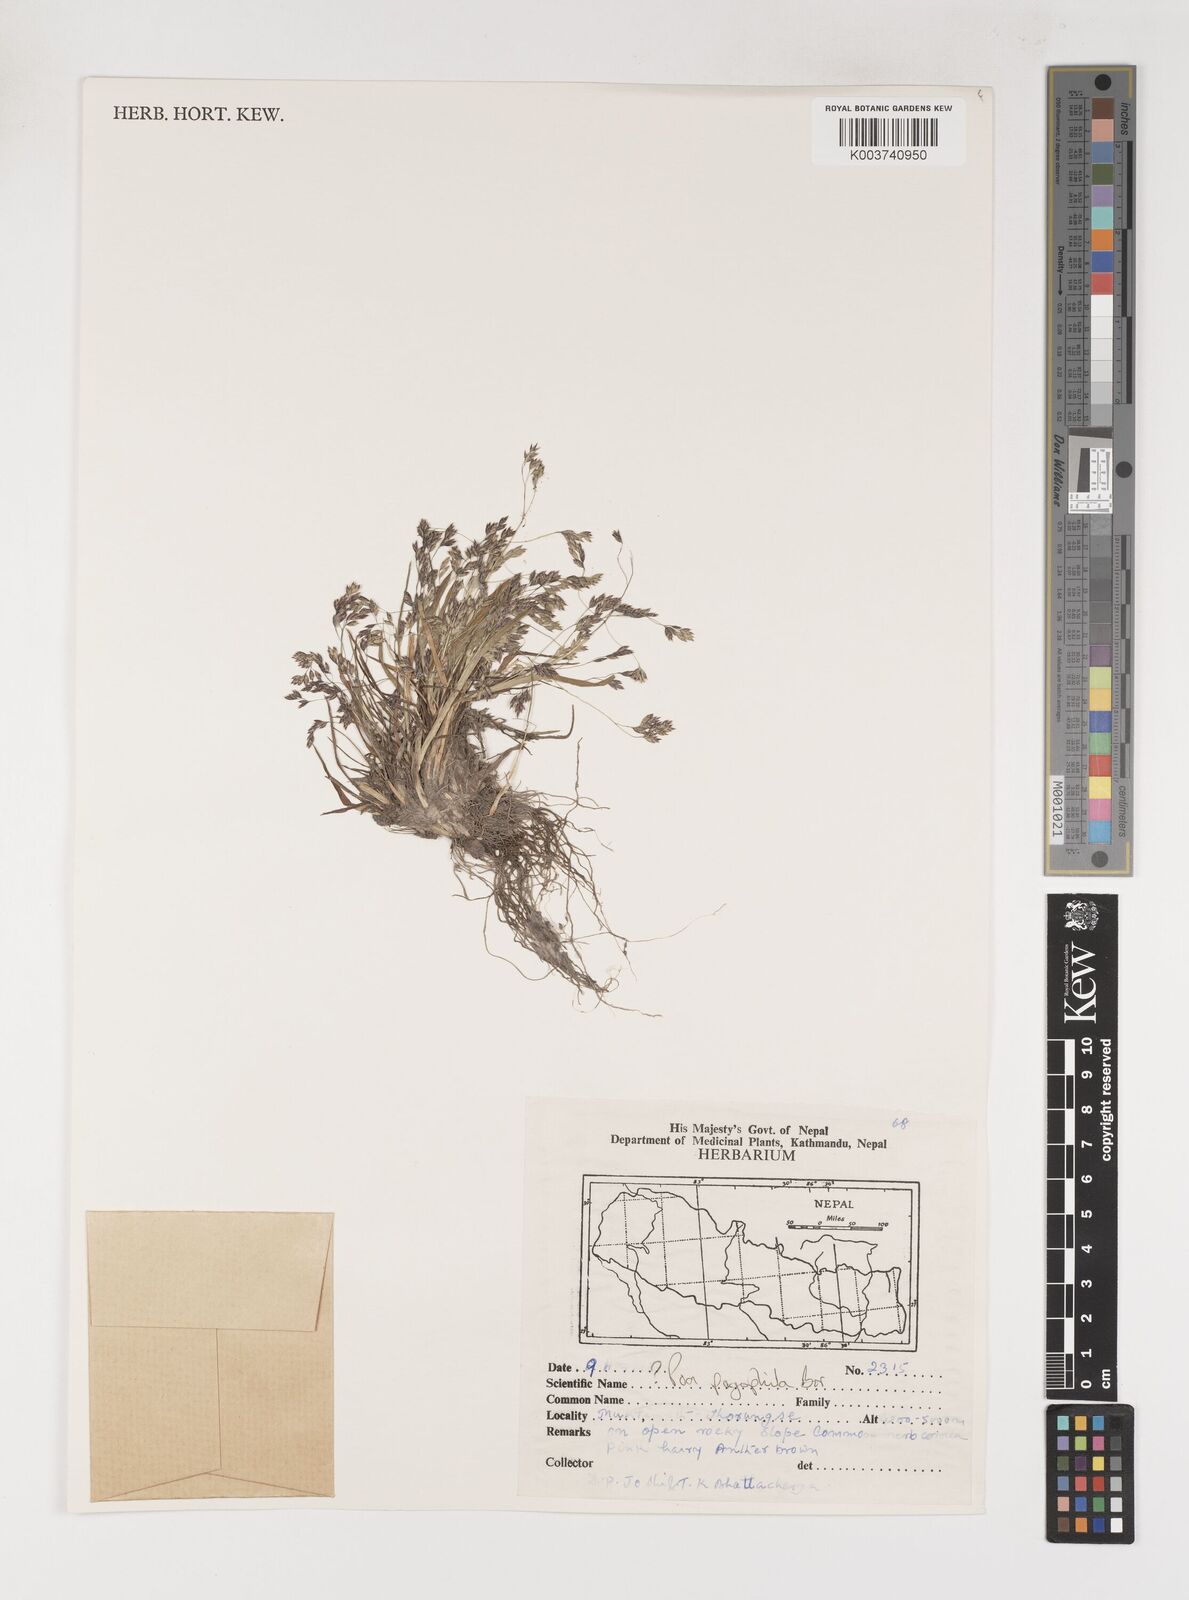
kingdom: Plantae
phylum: Tracheophyta
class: Liliopsida
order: Poales
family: Poaceae
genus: Poa
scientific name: Poa pagophila
